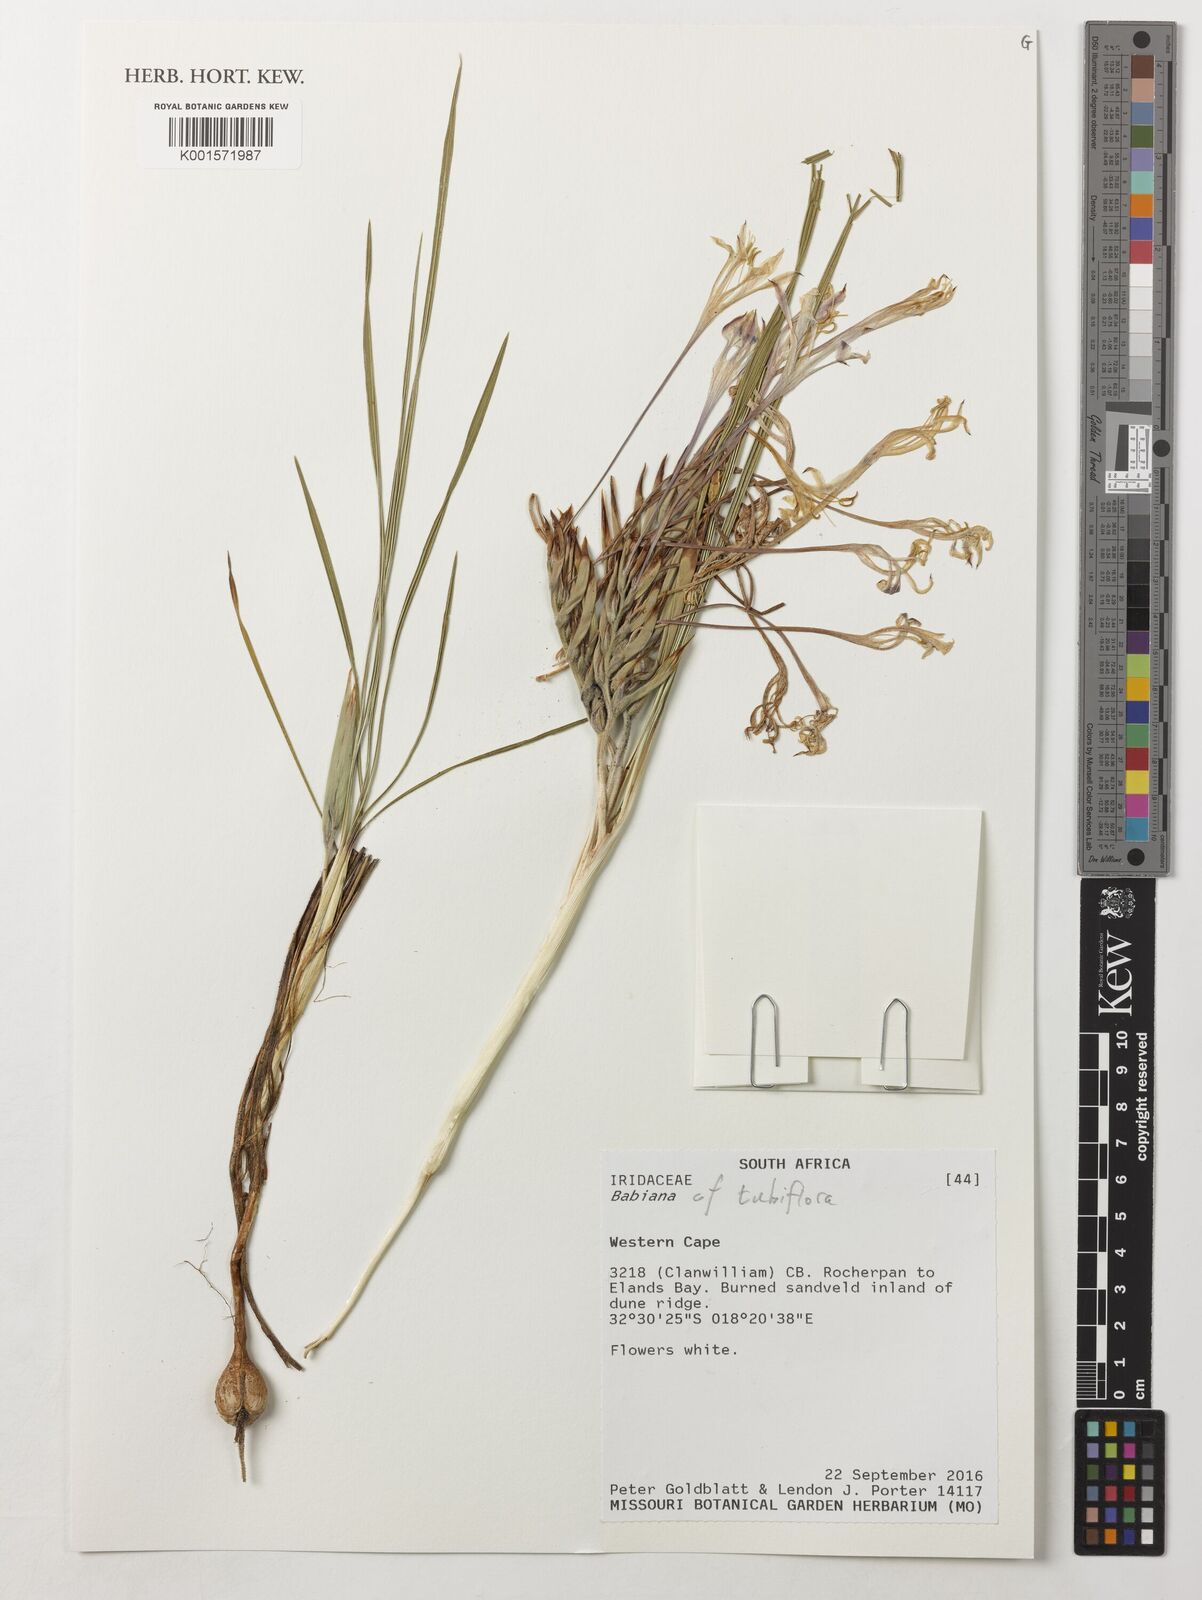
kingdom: Plantae
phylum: Tracheophyta
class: Liliopsida
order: Asparagales
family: Iridaceae
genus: Babiana
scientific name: Babiana tubiflora
